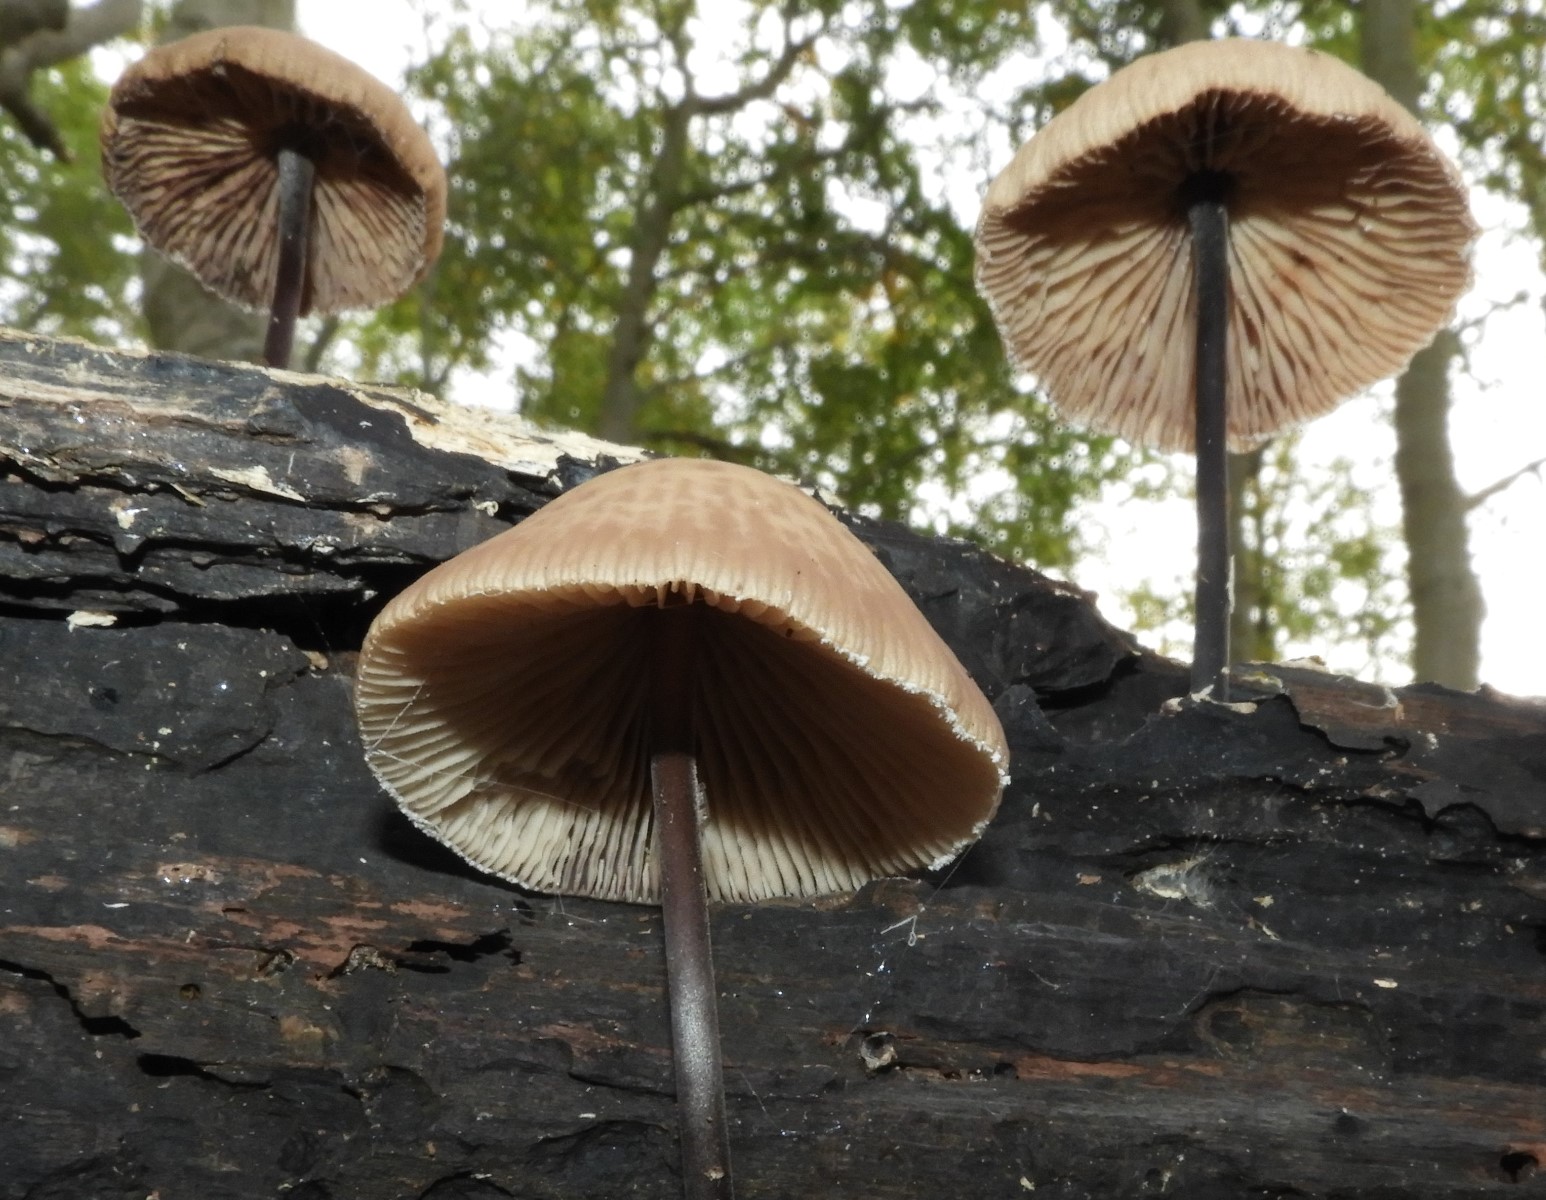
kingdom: Fungi
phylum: Basidiomycota
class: Agaricomycetes
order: Agaricales
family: Omphalotaceae
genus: Mycetinis
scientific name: Mycetinis alliaceus
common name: stor løghat
